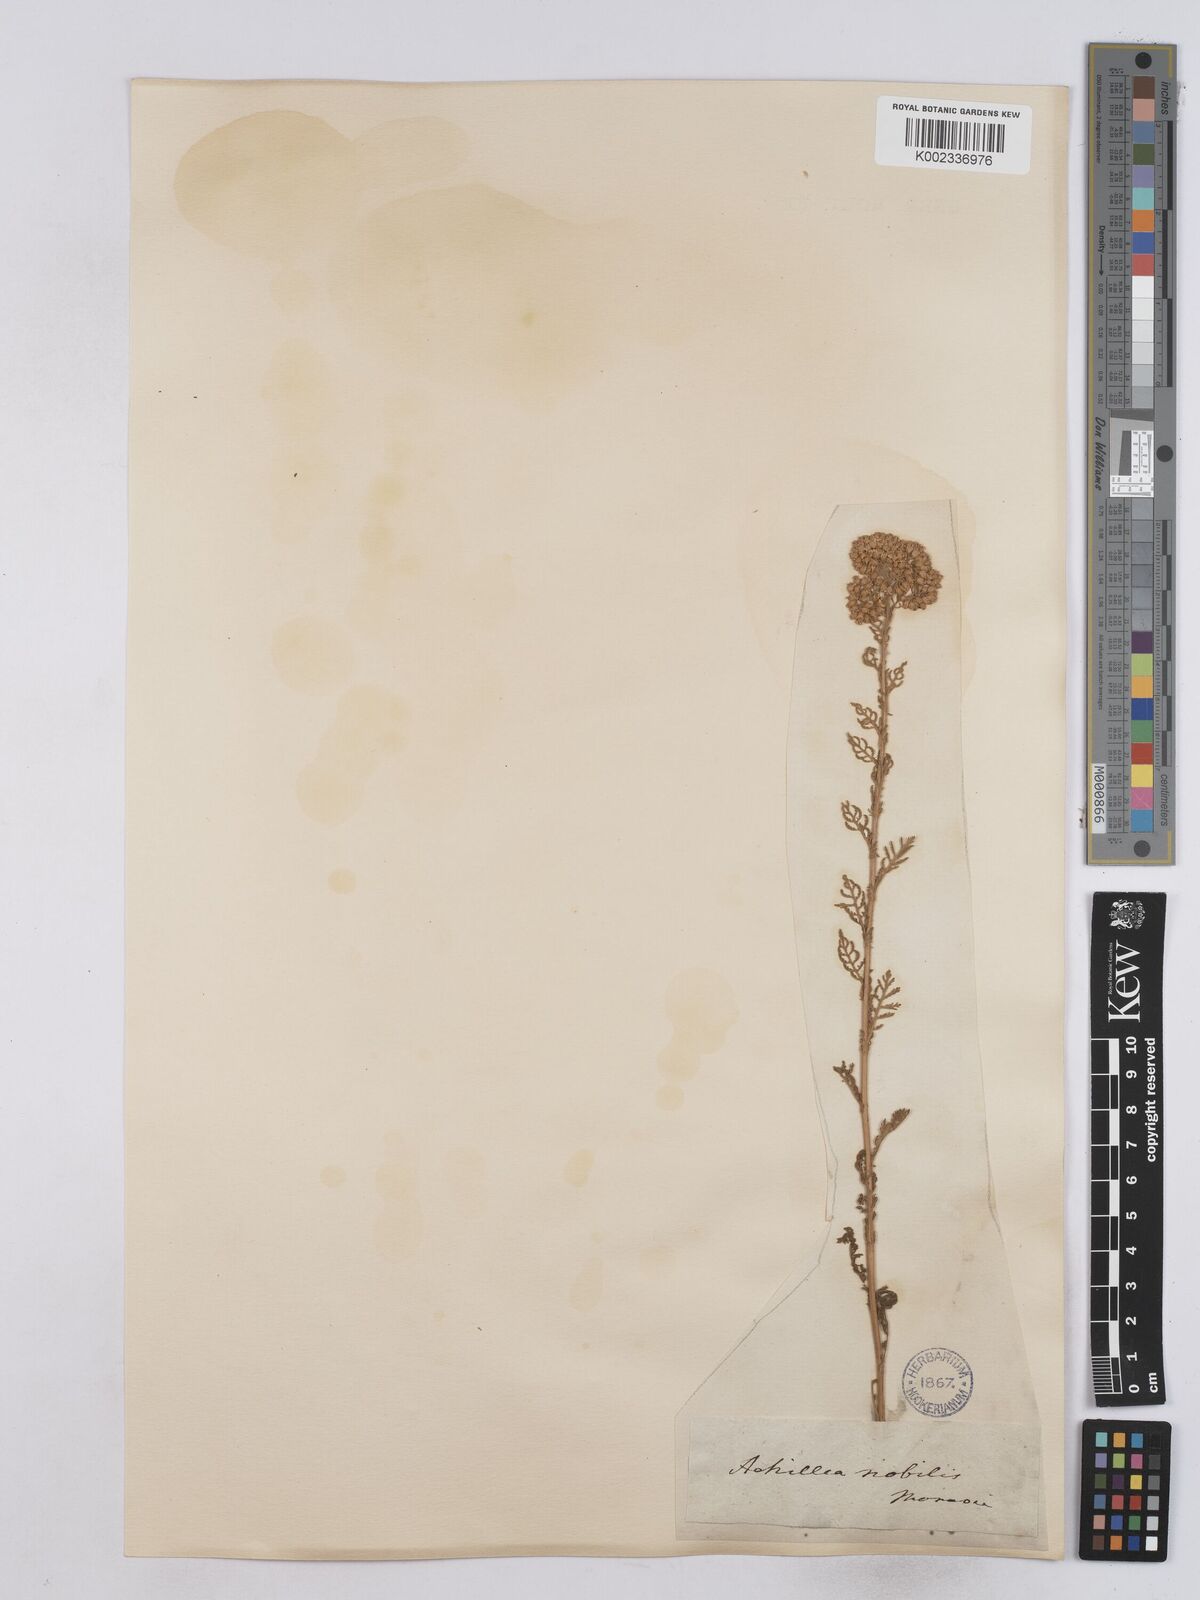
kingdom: Plantae
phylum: Tracheophyta
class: Magnoliopsida
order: Asterales
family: Asteraceae
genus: Achillea
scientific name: Achillea nobilis
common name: Noble yarrow
